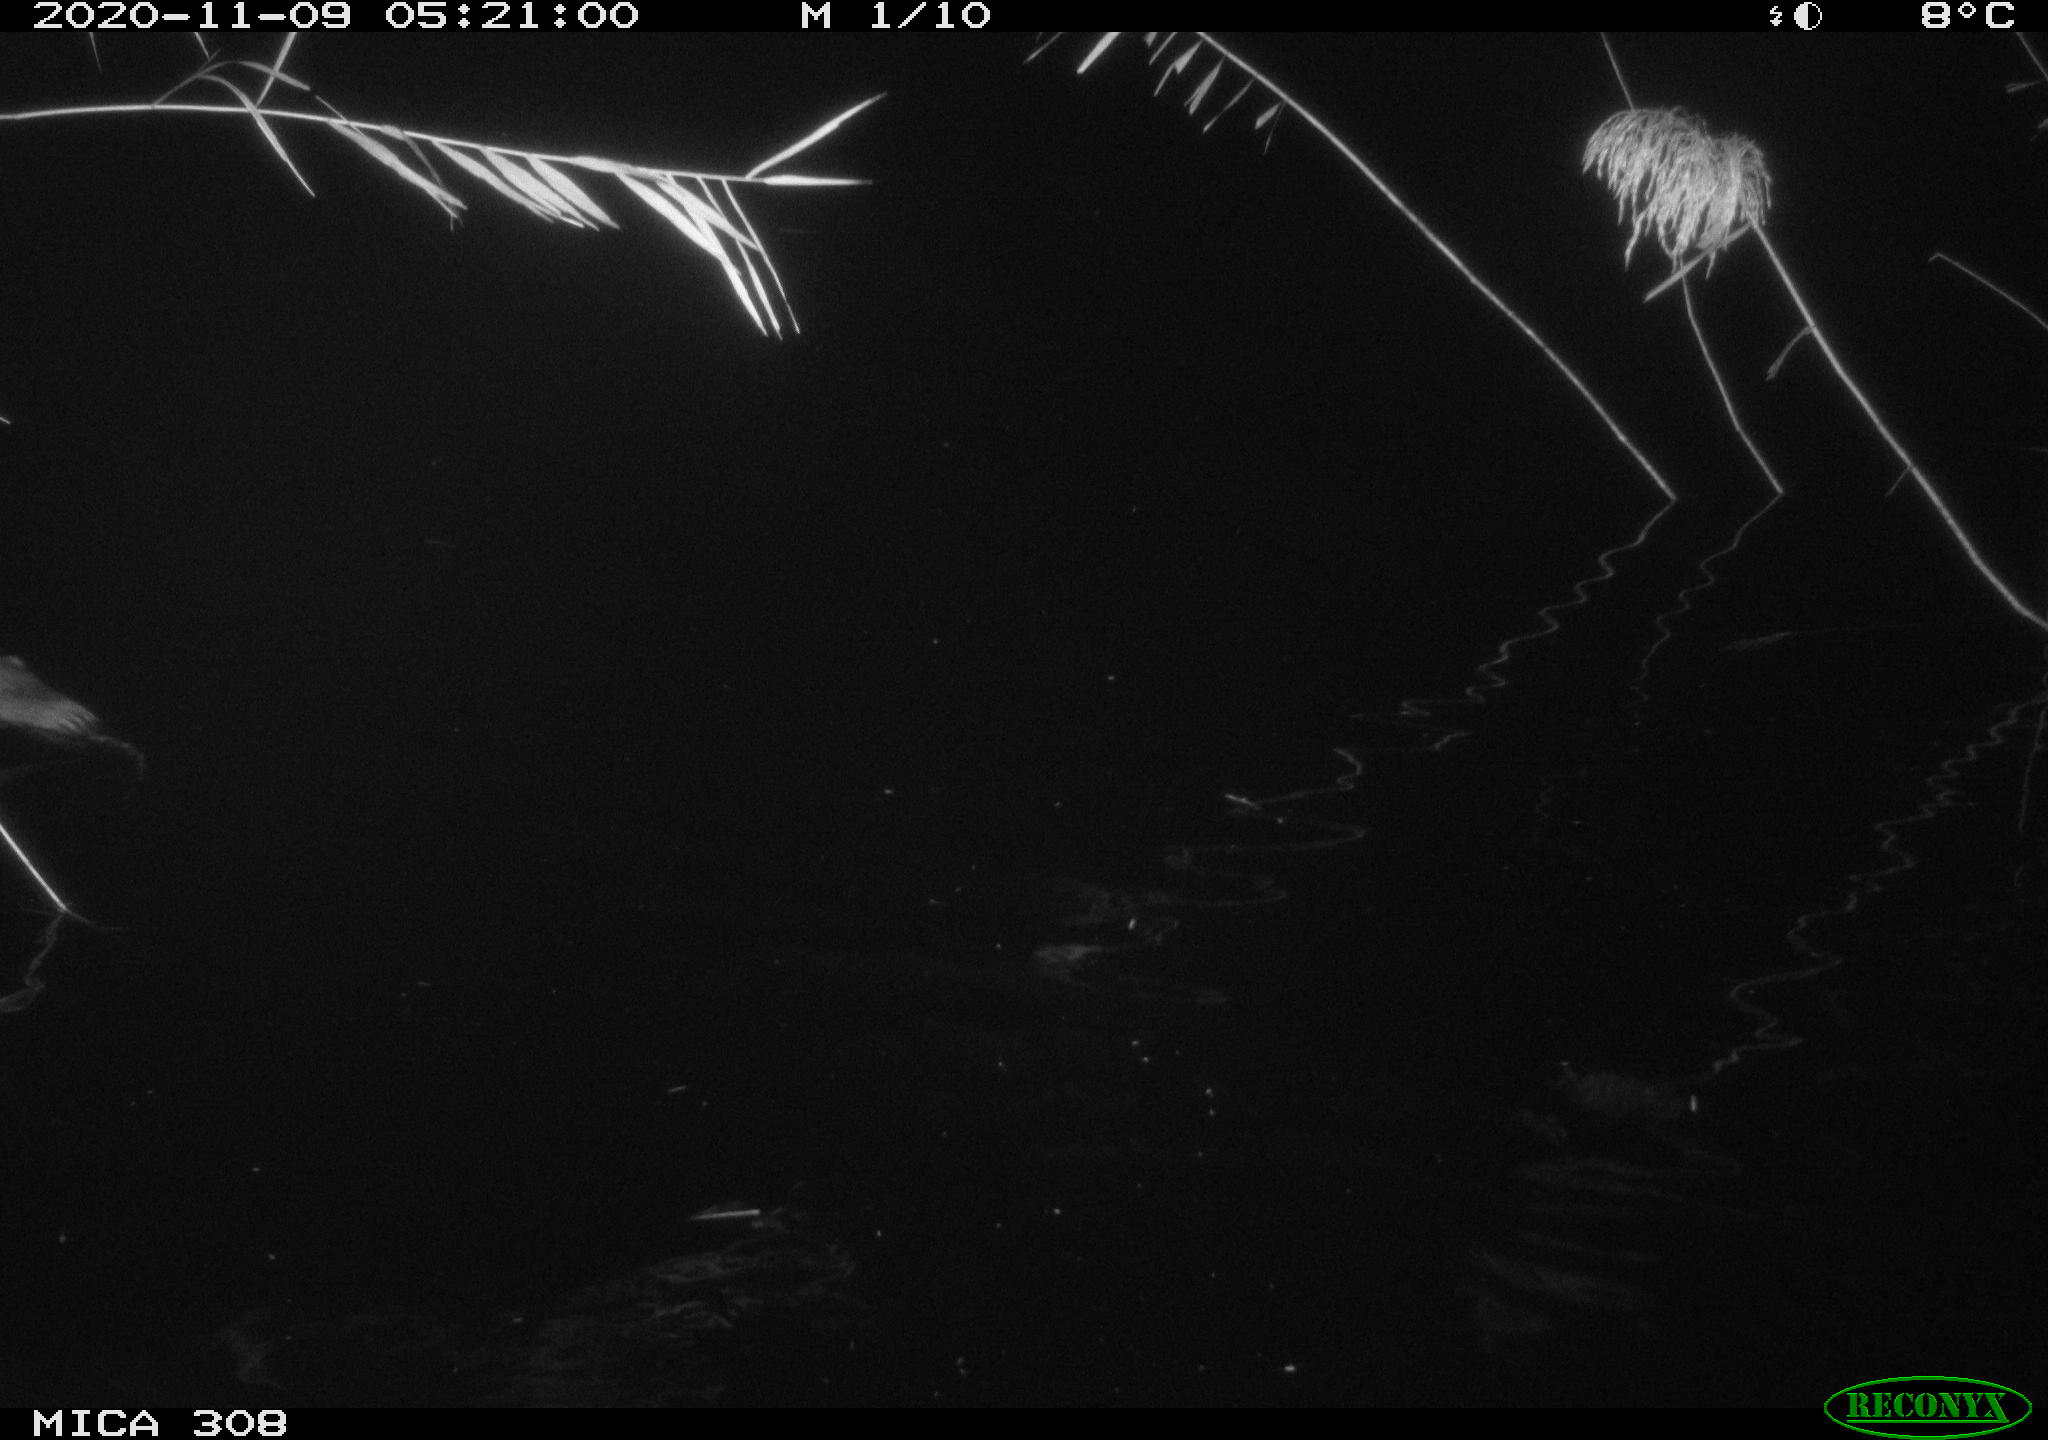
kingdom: Animalia
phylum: Chordata
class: Mammalia
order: Rodentia
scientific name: Rodentia
